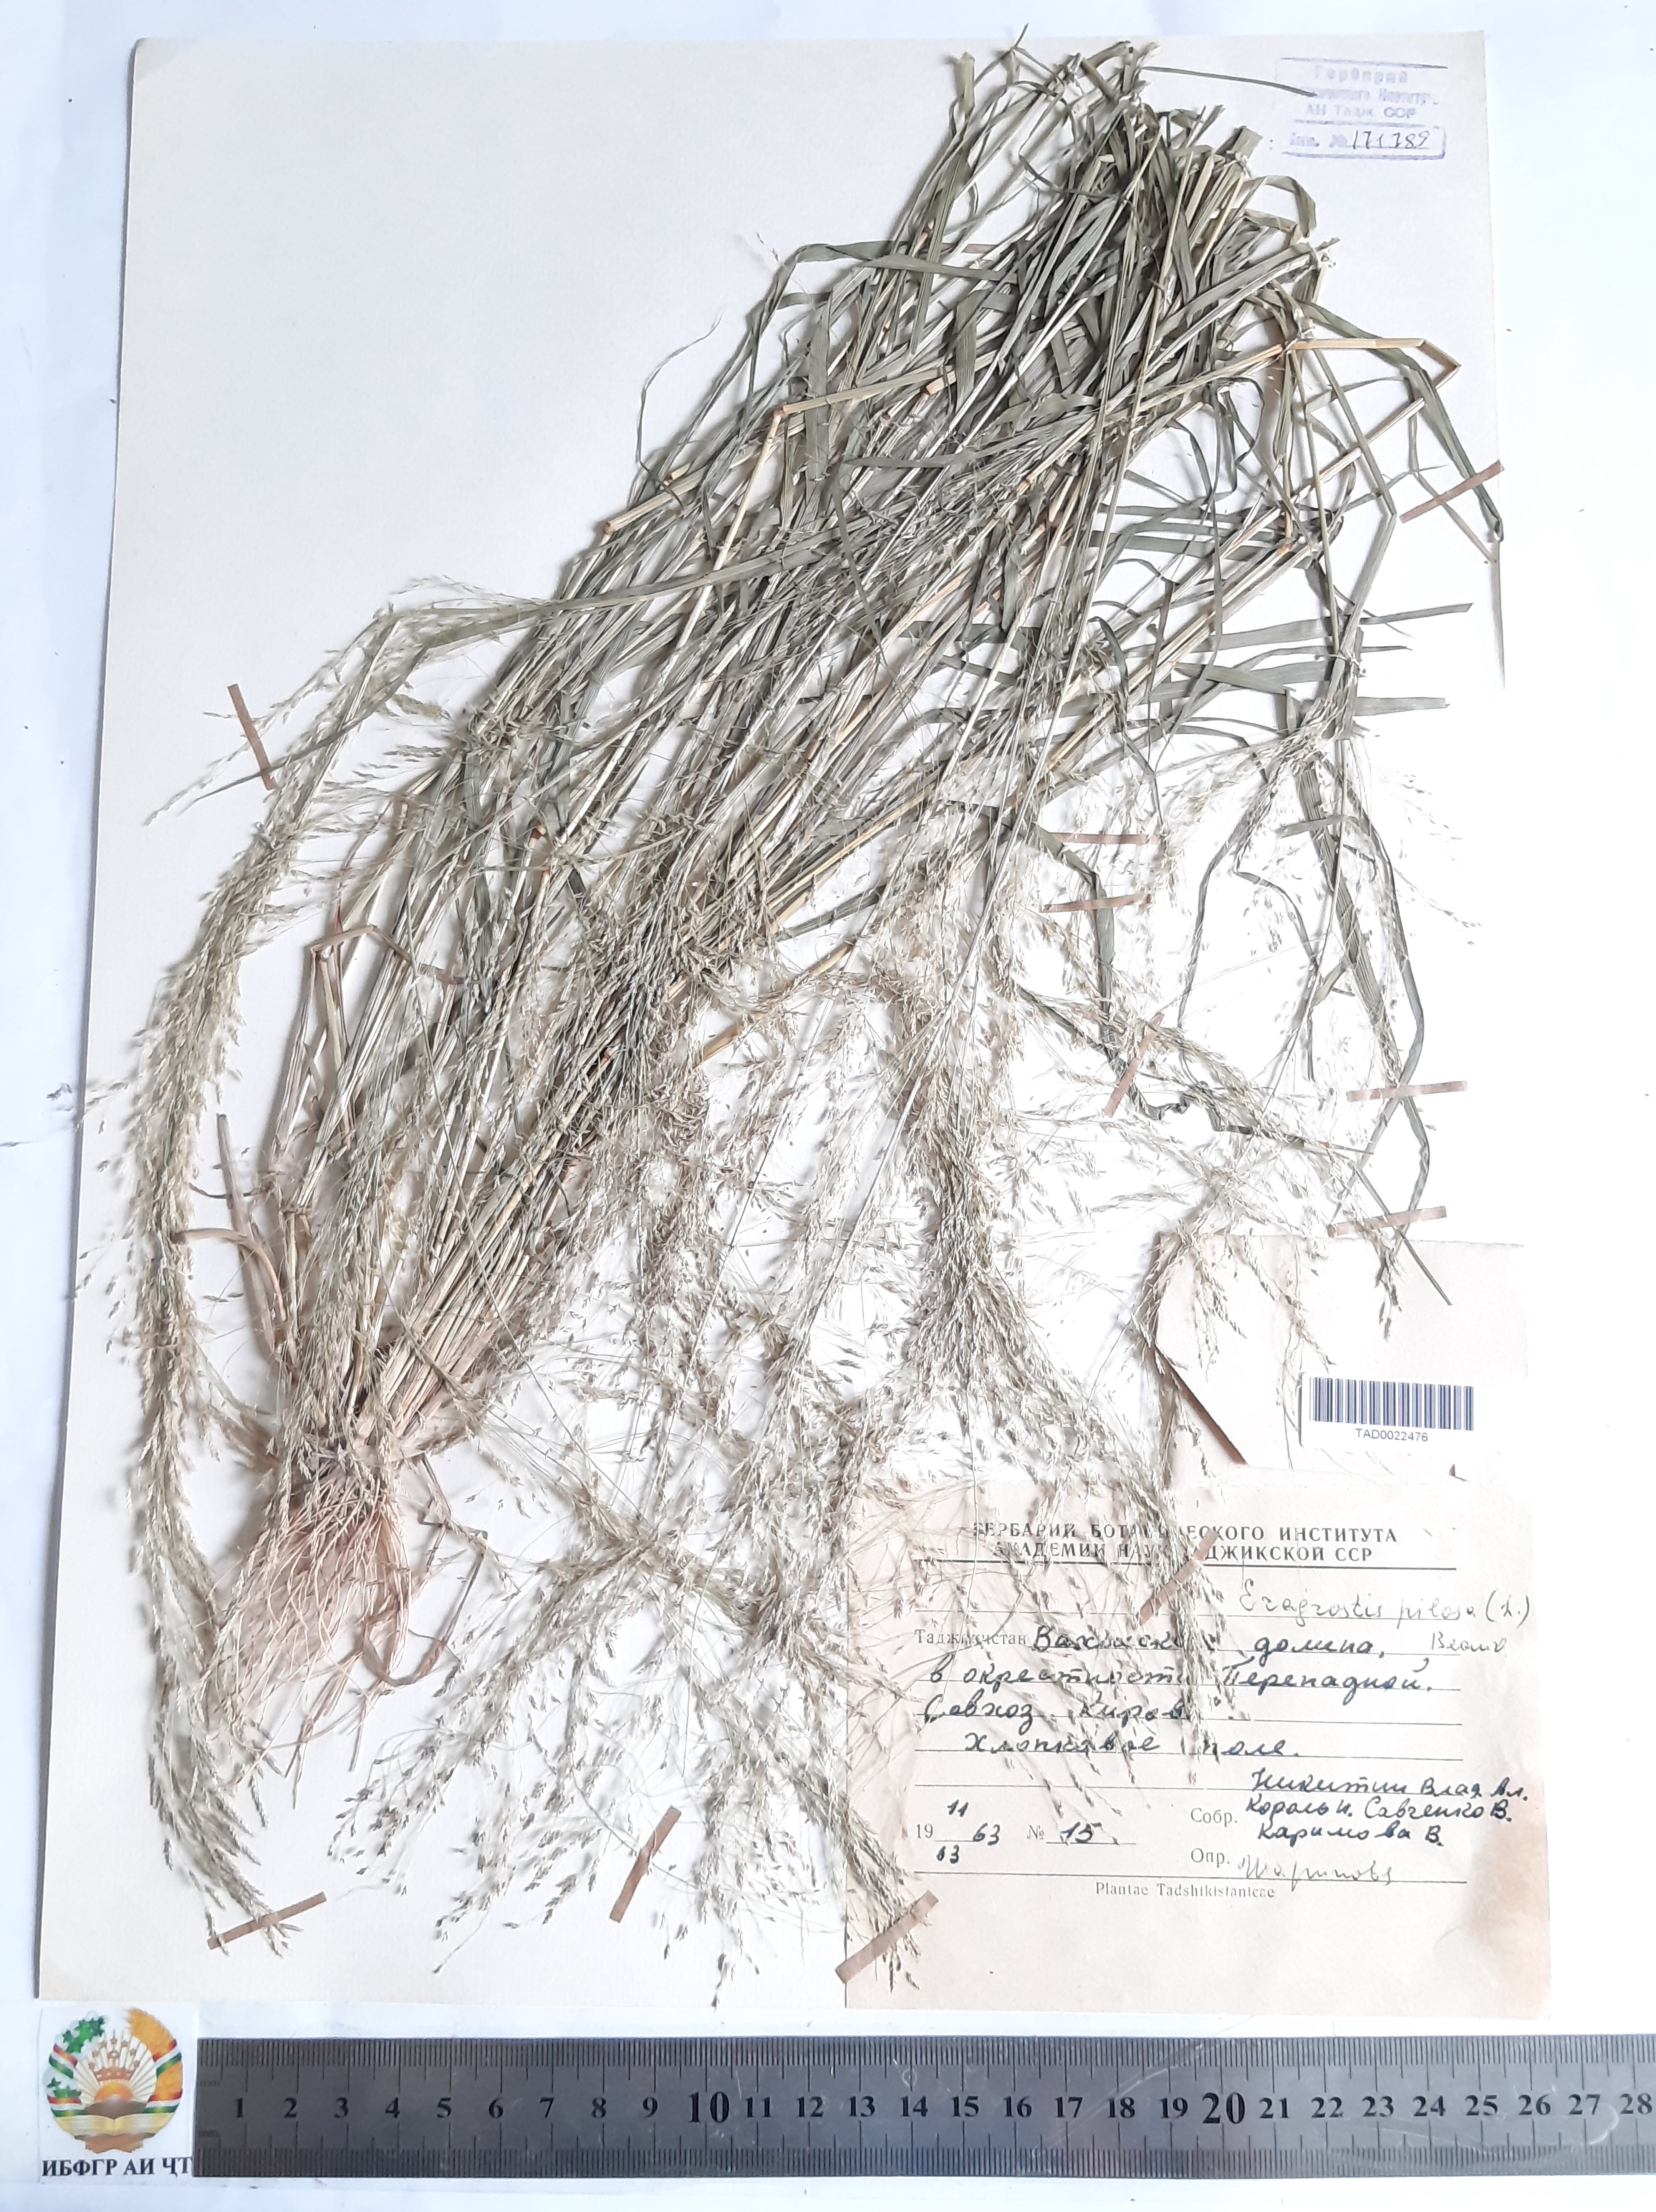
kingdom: Plantae
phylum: Tracheophyta
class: Liliopsida
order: Poales
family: Poaceae
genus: Eragrostis
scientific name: Eragrostis pilosa
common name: Indian lovegrass
